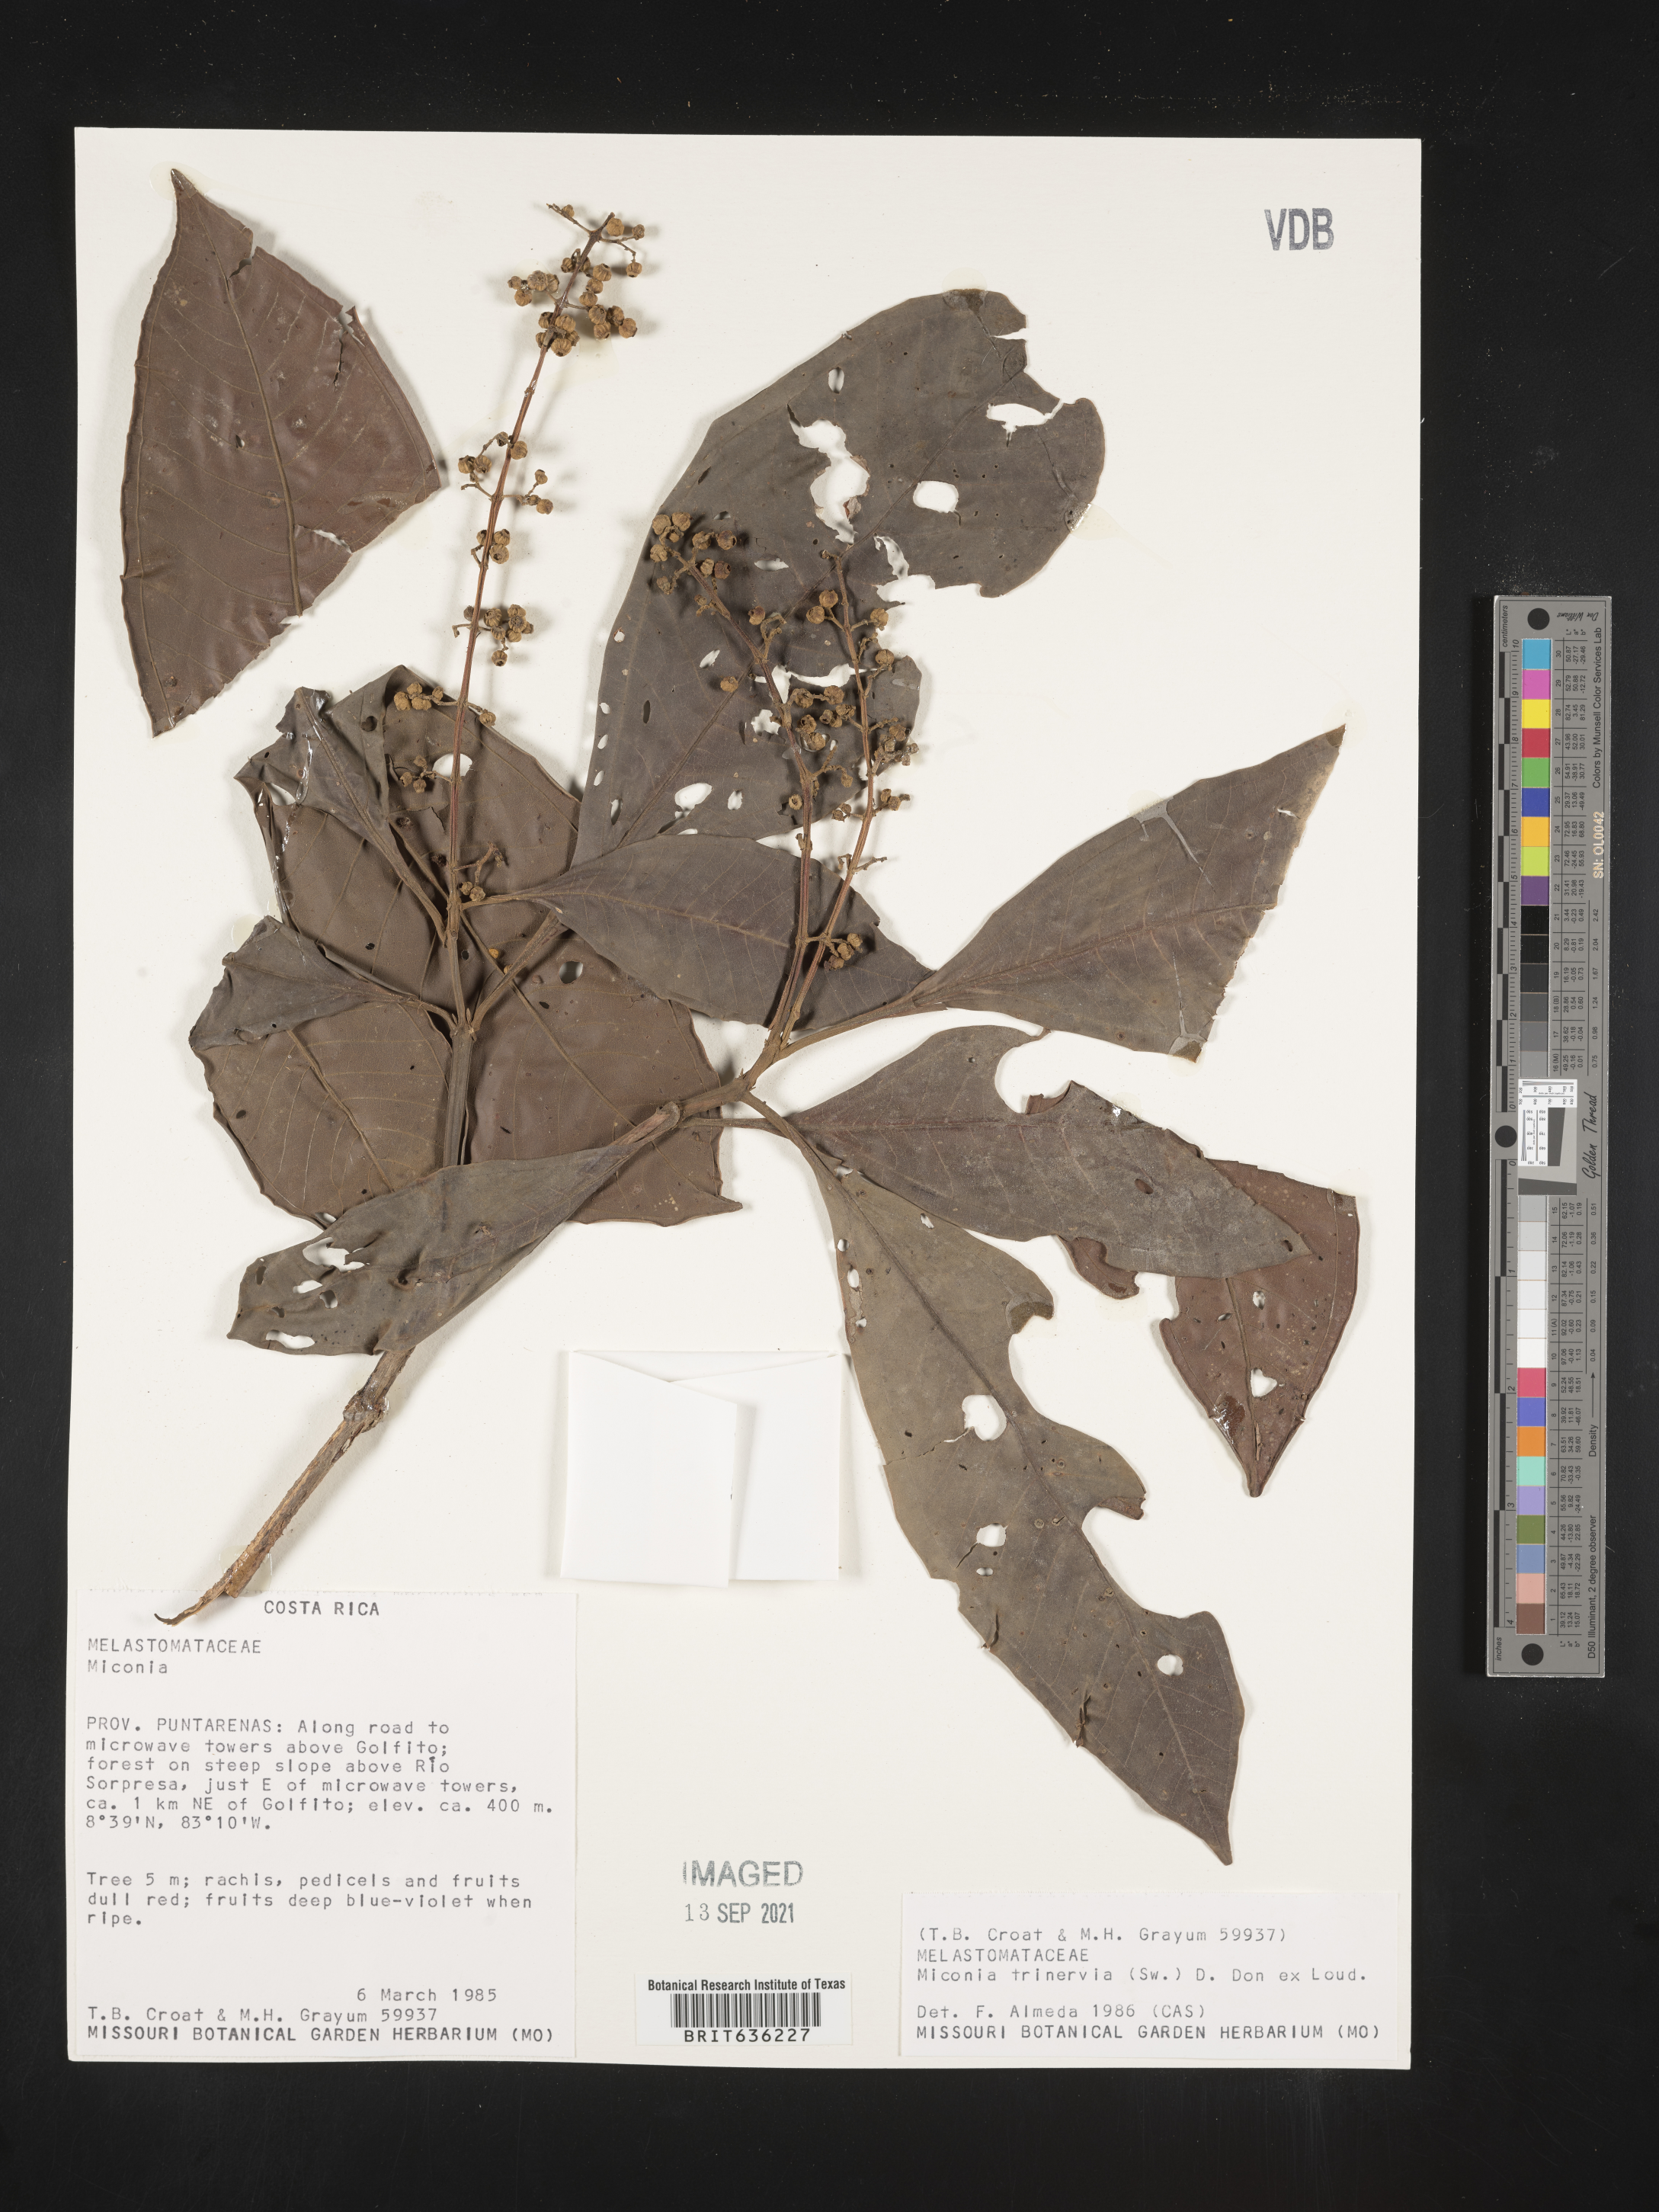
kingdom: Plantae
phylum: Tracheophyta
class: Magnoliopsida
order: Myrtales
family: Melastomataceae
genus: Miconia
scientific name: Miconia
